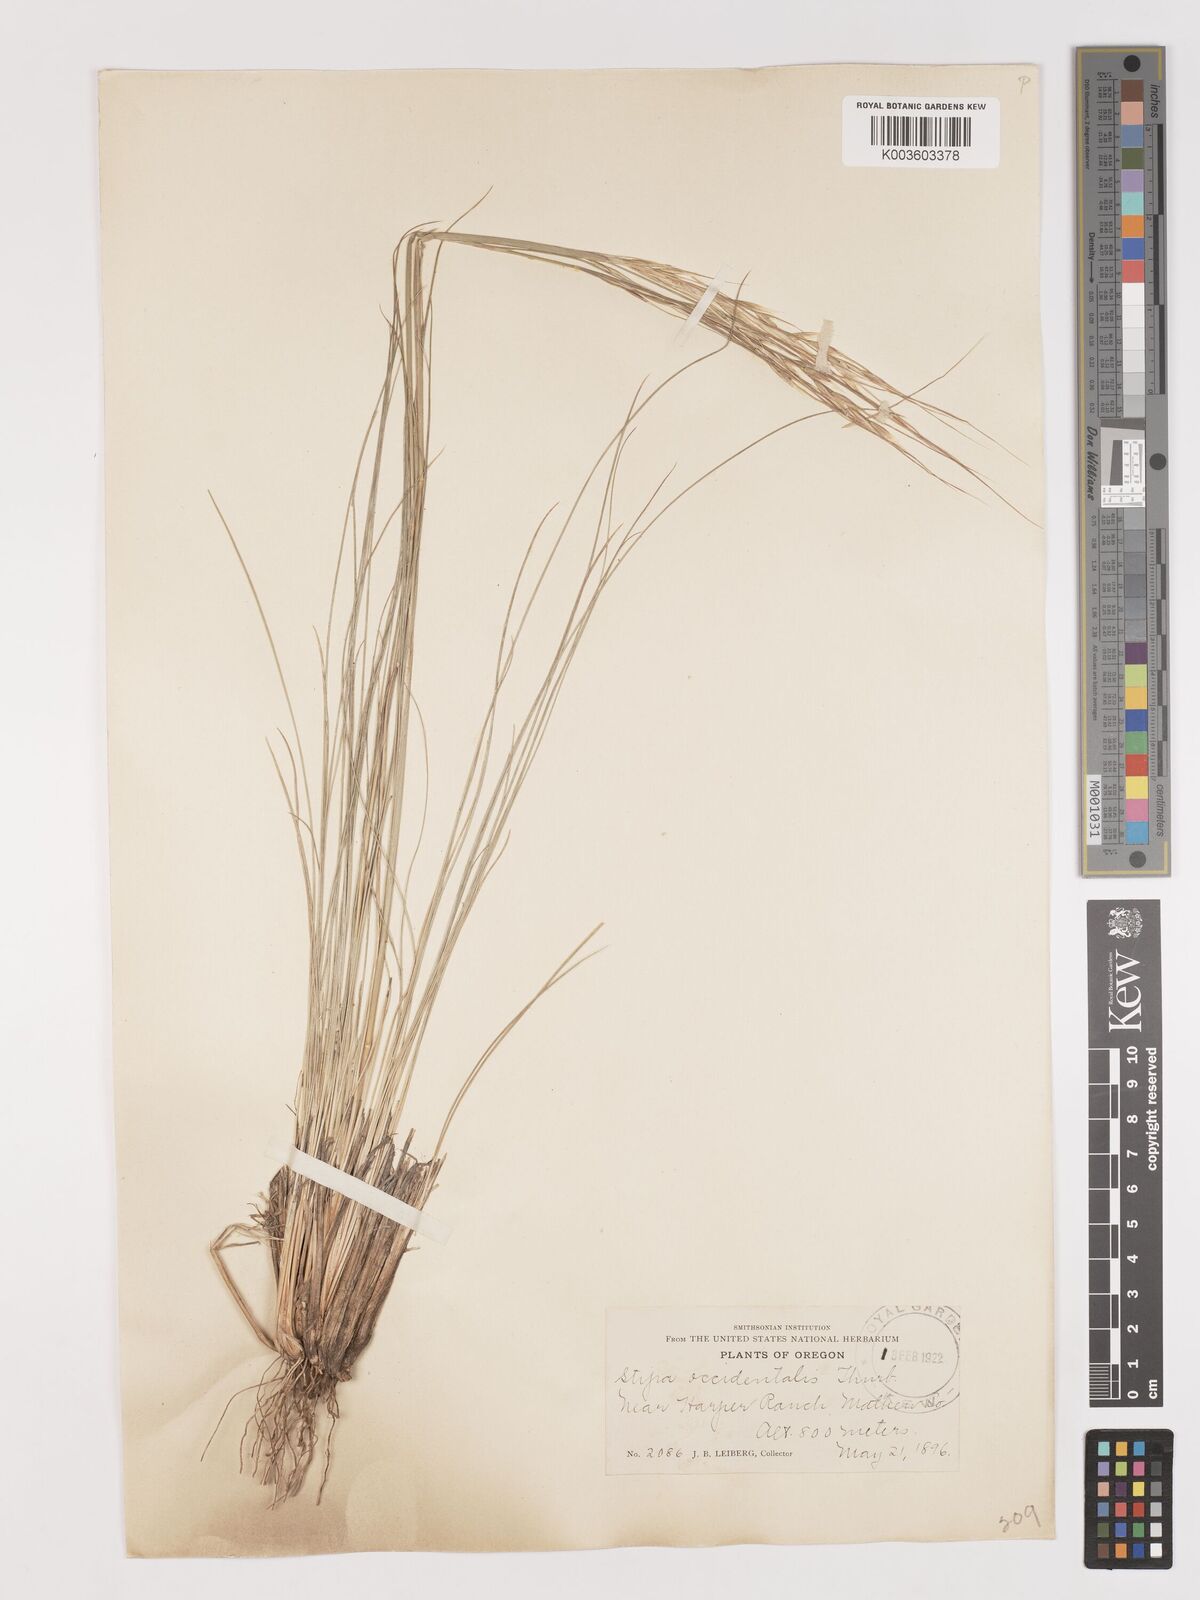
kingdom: Plantae
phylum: Tracheophyta
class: Liliopsida
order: Poales
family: Poaceae
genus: Eriocoma
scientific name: Eriocoma thurberiana
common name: Thurber's needlegrass
